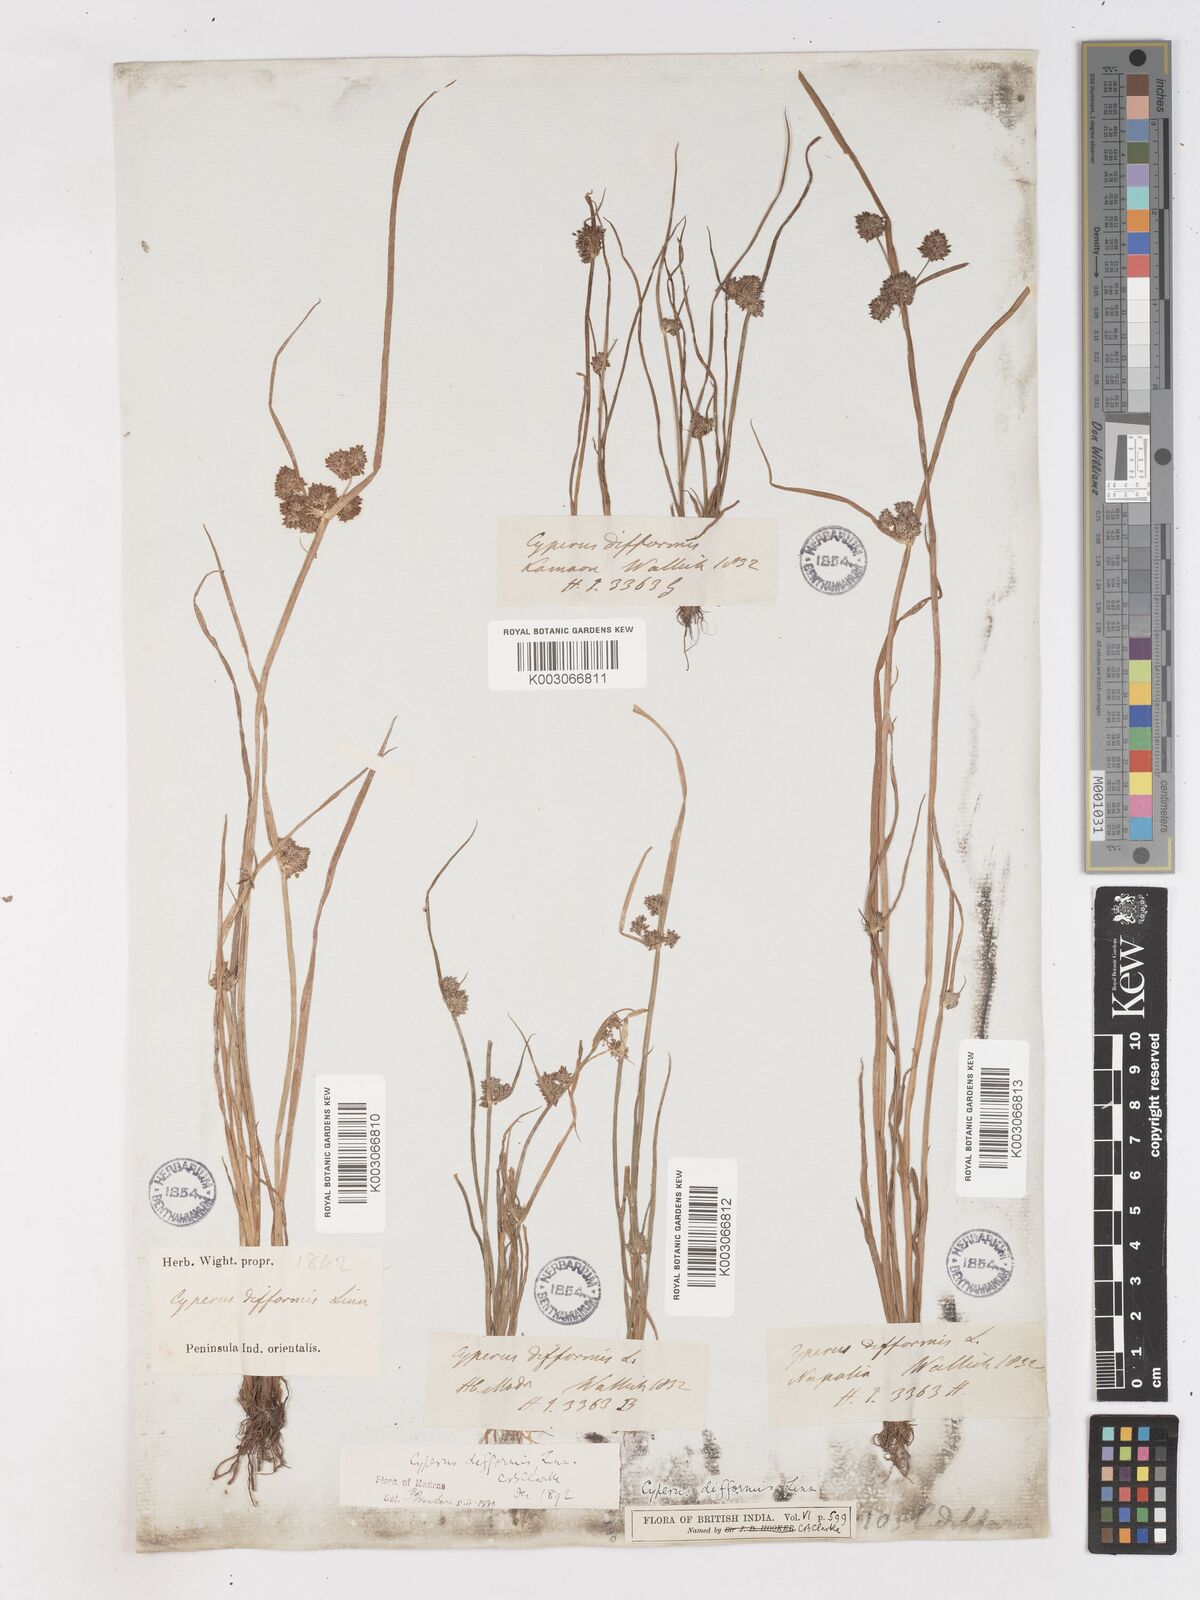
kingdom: Plantae
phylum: Tracheophyta
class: Liliopsida
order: Poales
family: Cyperaceae
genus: Cyperus
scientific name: Cyperus difformis
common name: Variable flatsedge
